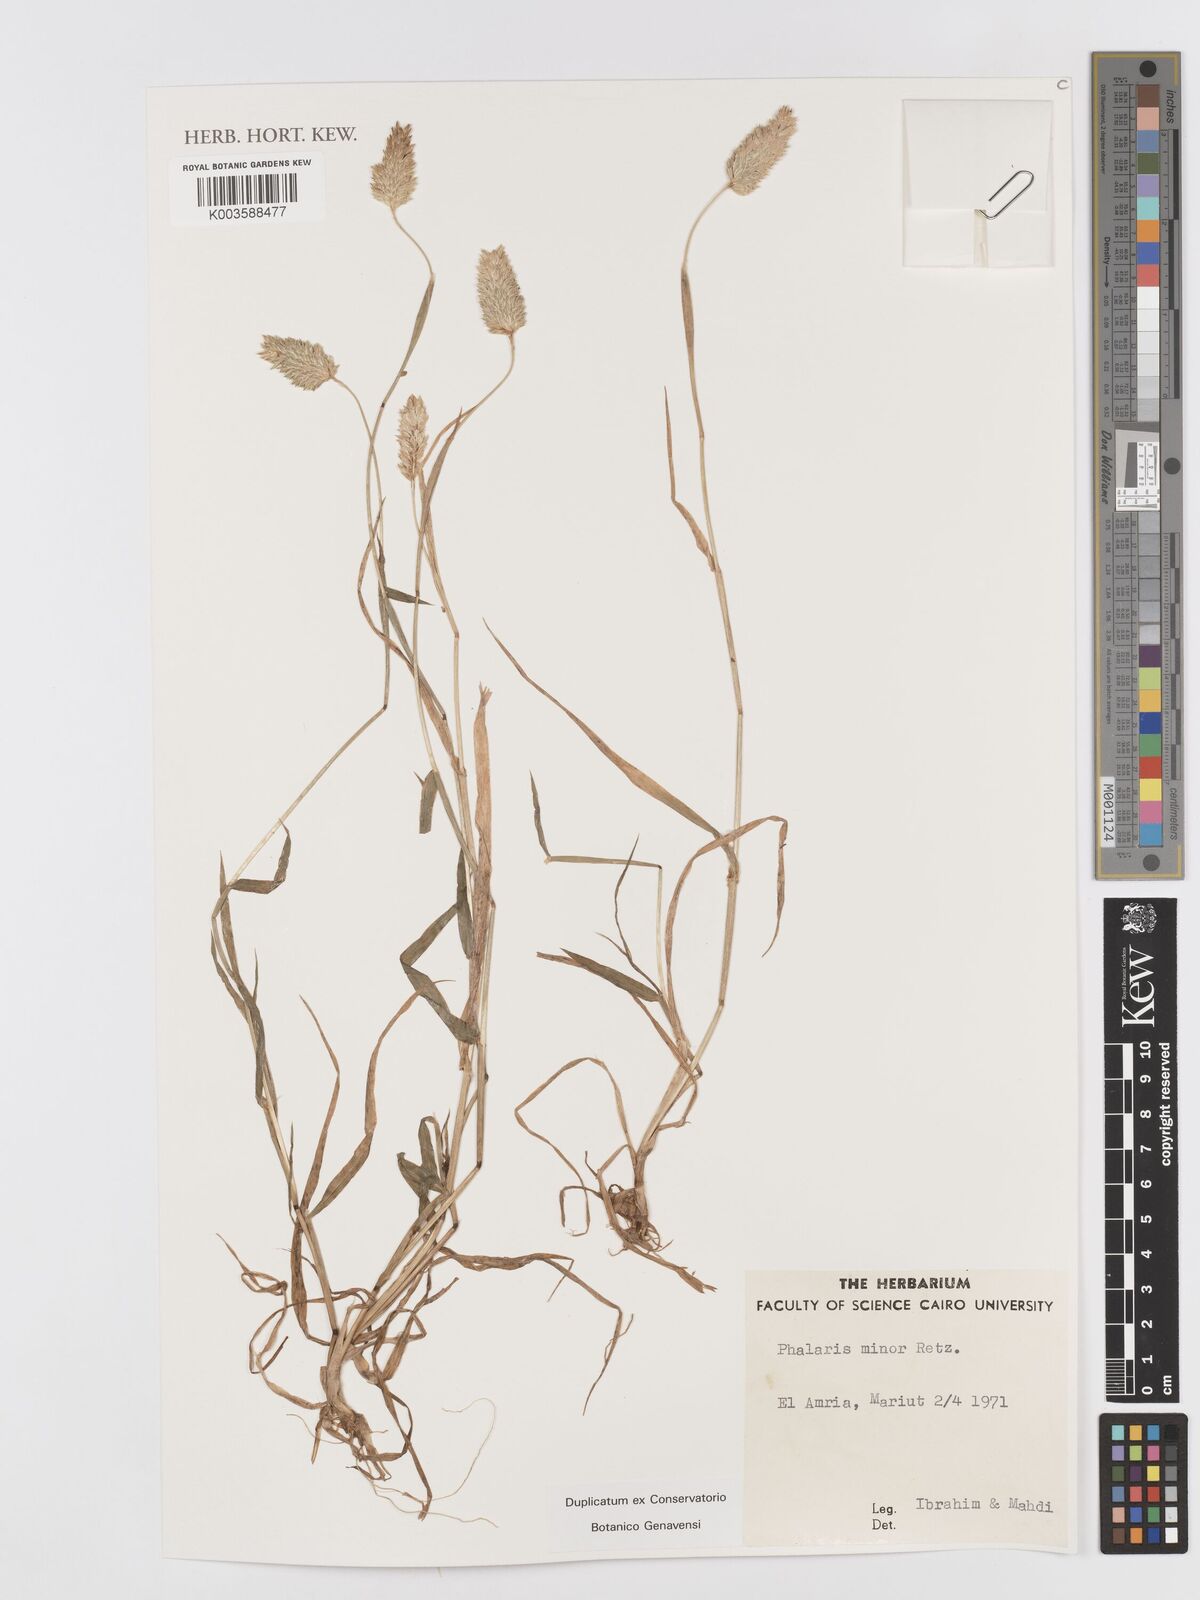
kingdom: Plantae
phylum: Tracheophyta
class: Liliopsida
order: Poales
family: Poaceae
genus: Phalaris
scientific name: Phalaris minor
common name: Littleseed canarygrass
